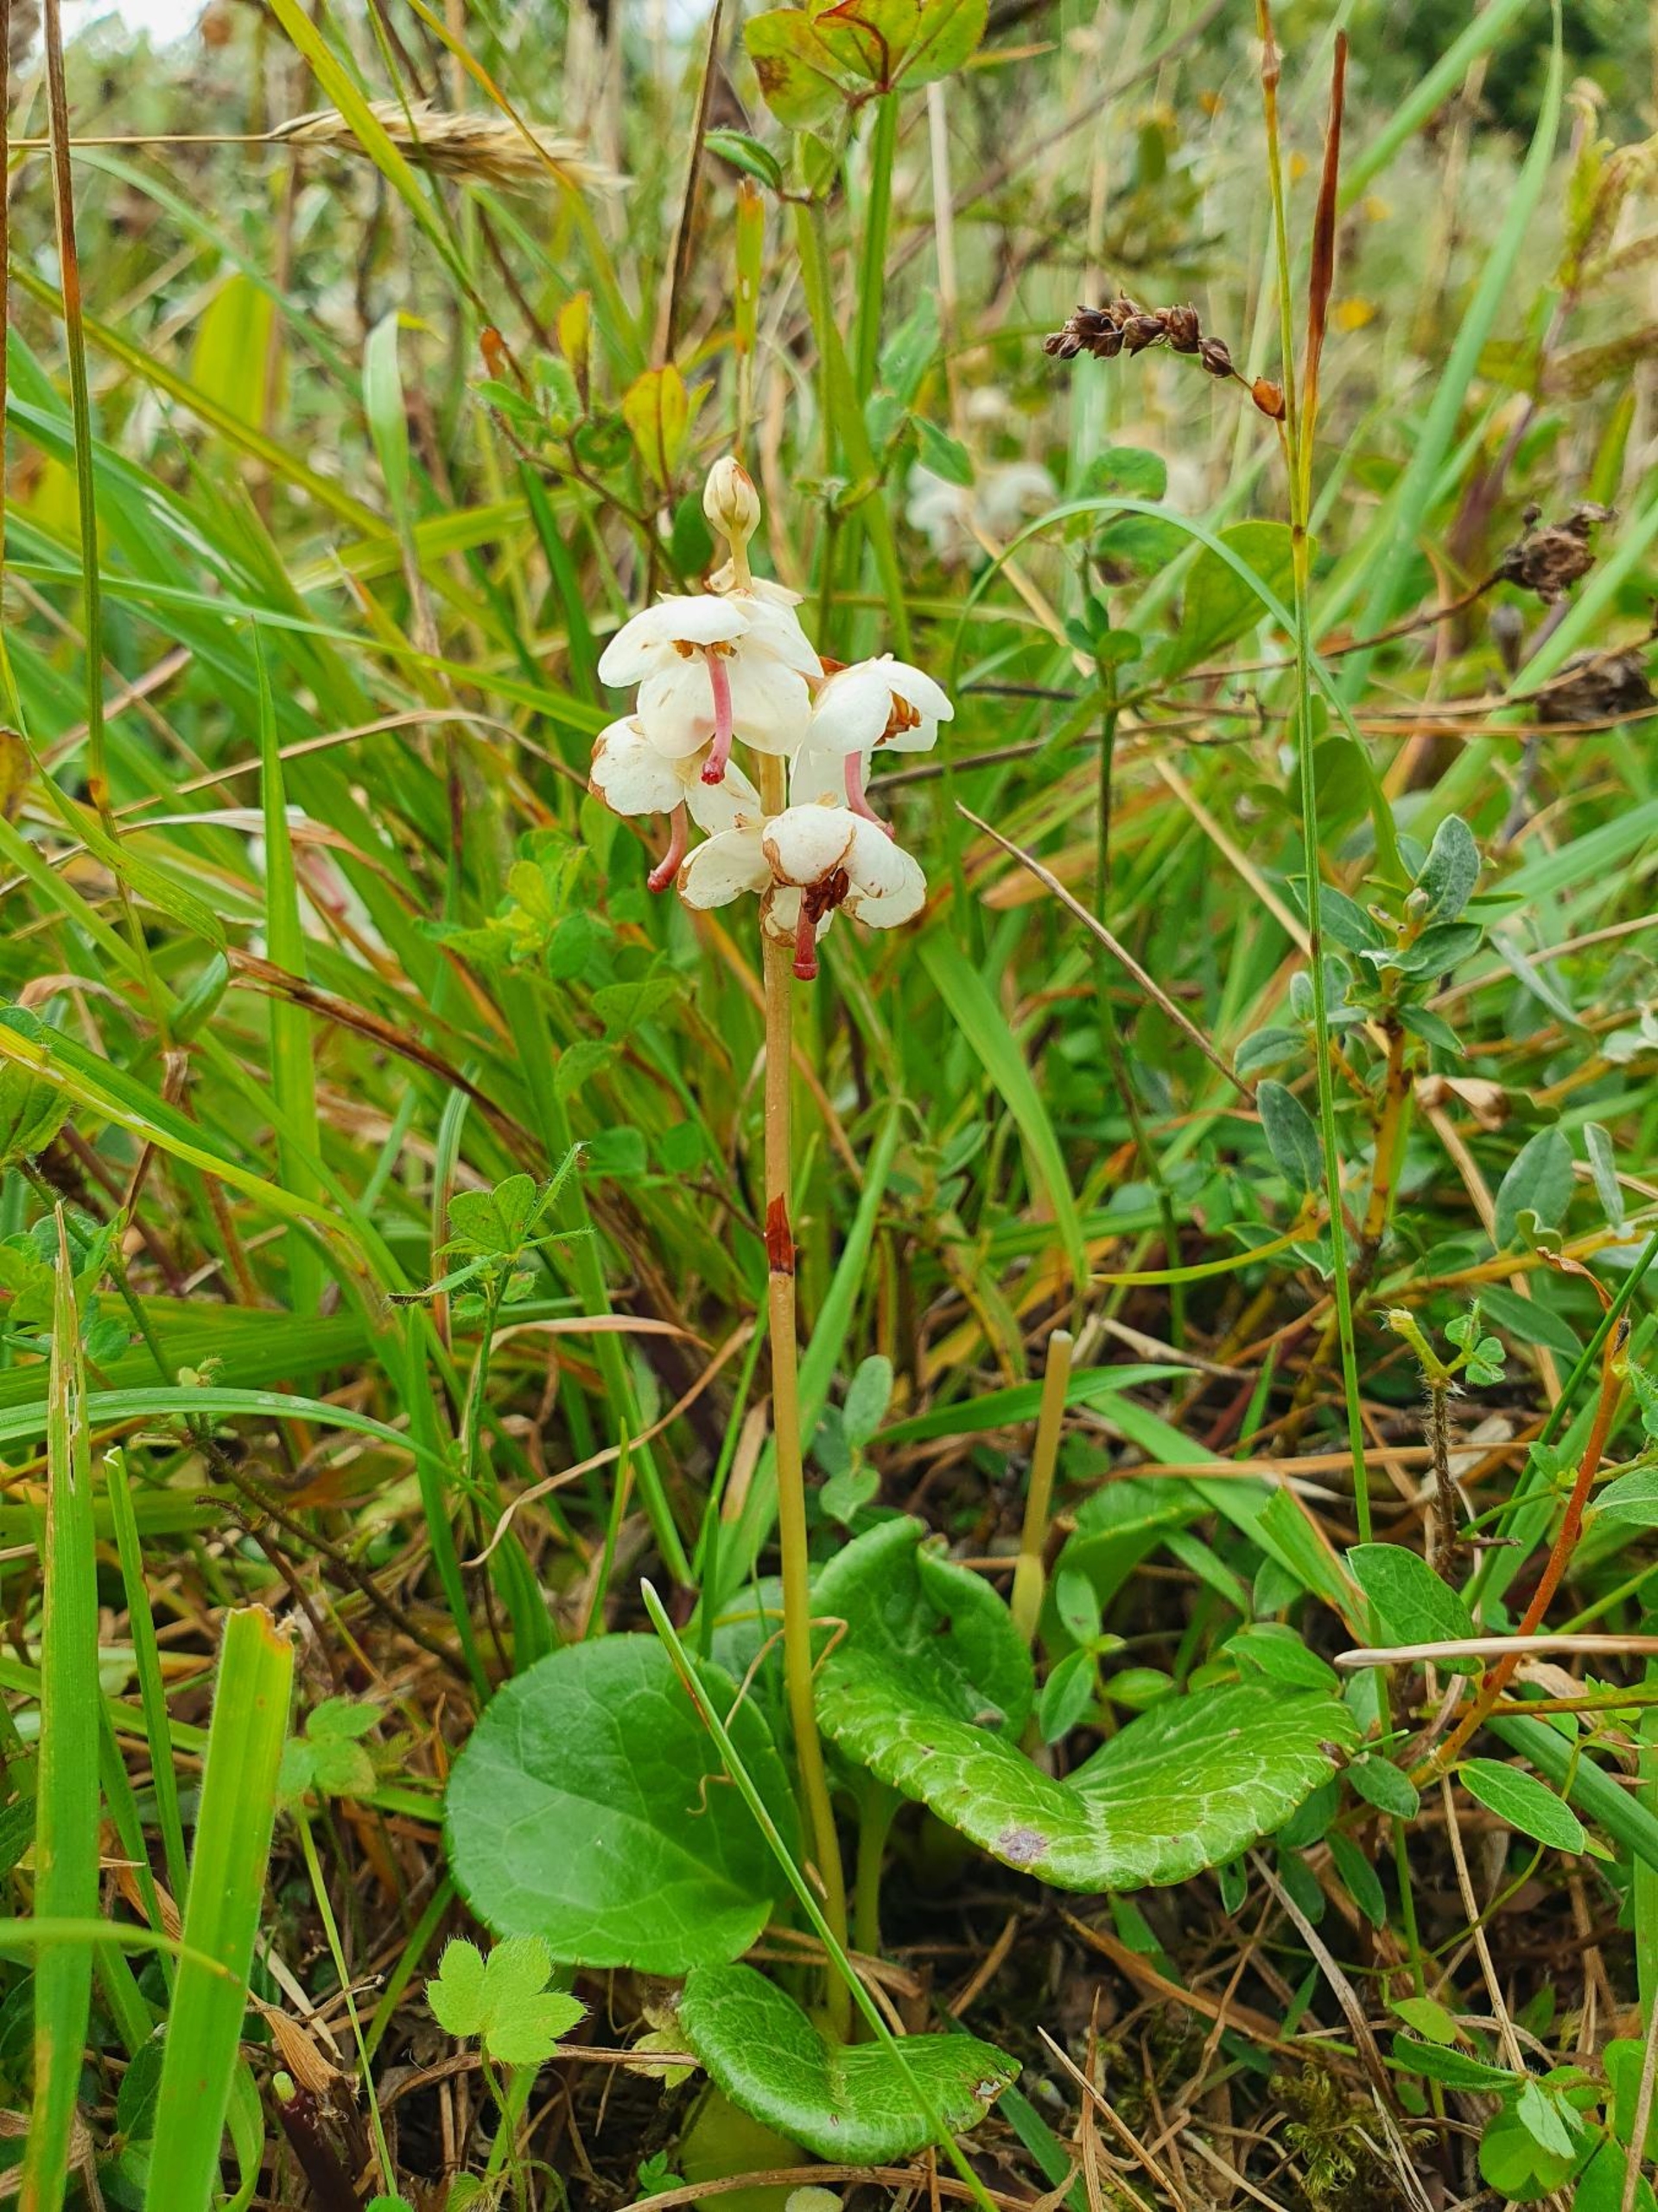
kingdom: Plantae
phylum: Tracheophyta
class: Magnoliopsida
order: Ericales
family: Ericaceae
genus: Pyrola
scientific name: Pyrola rotundifolia
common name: Klit-vintergrøn
